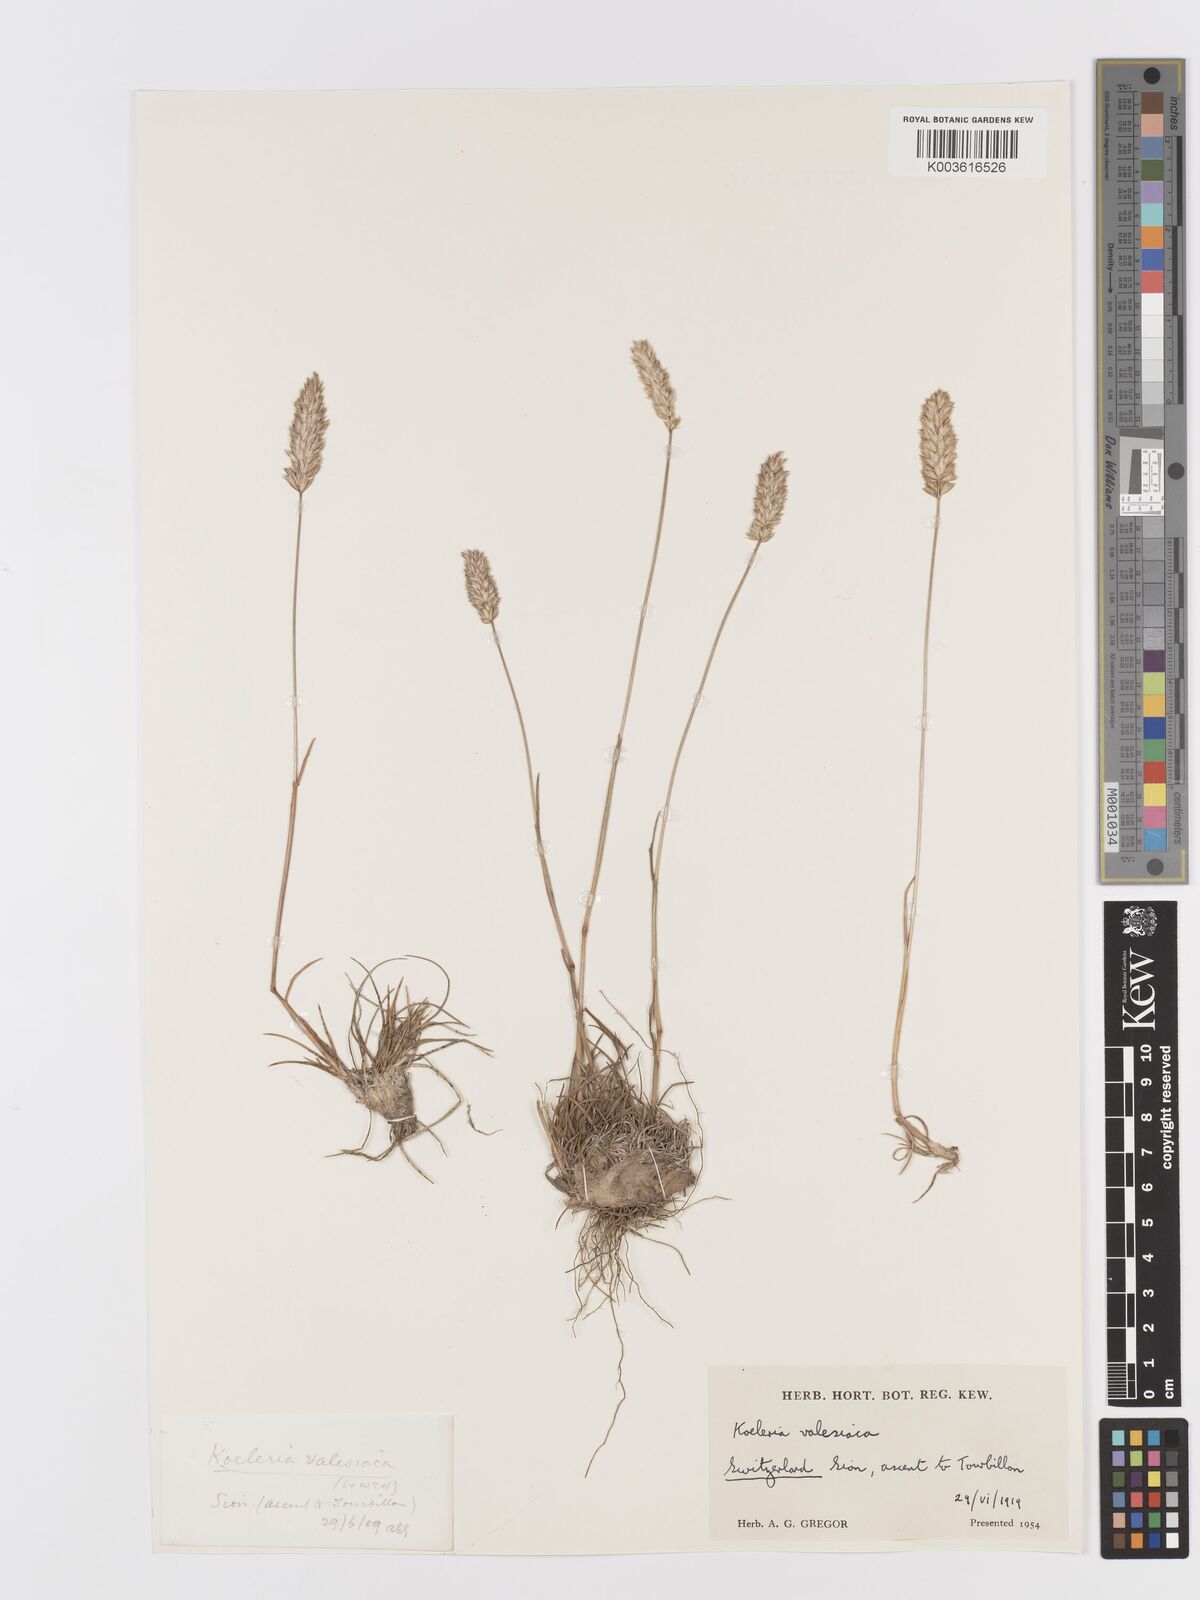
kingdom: Plantae
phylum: Tracheophyta
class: Liliopsida
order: Poales
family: Poaceae
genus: Koeleria
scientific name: Koeleria vallesiana
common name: Somerset hair-grass
